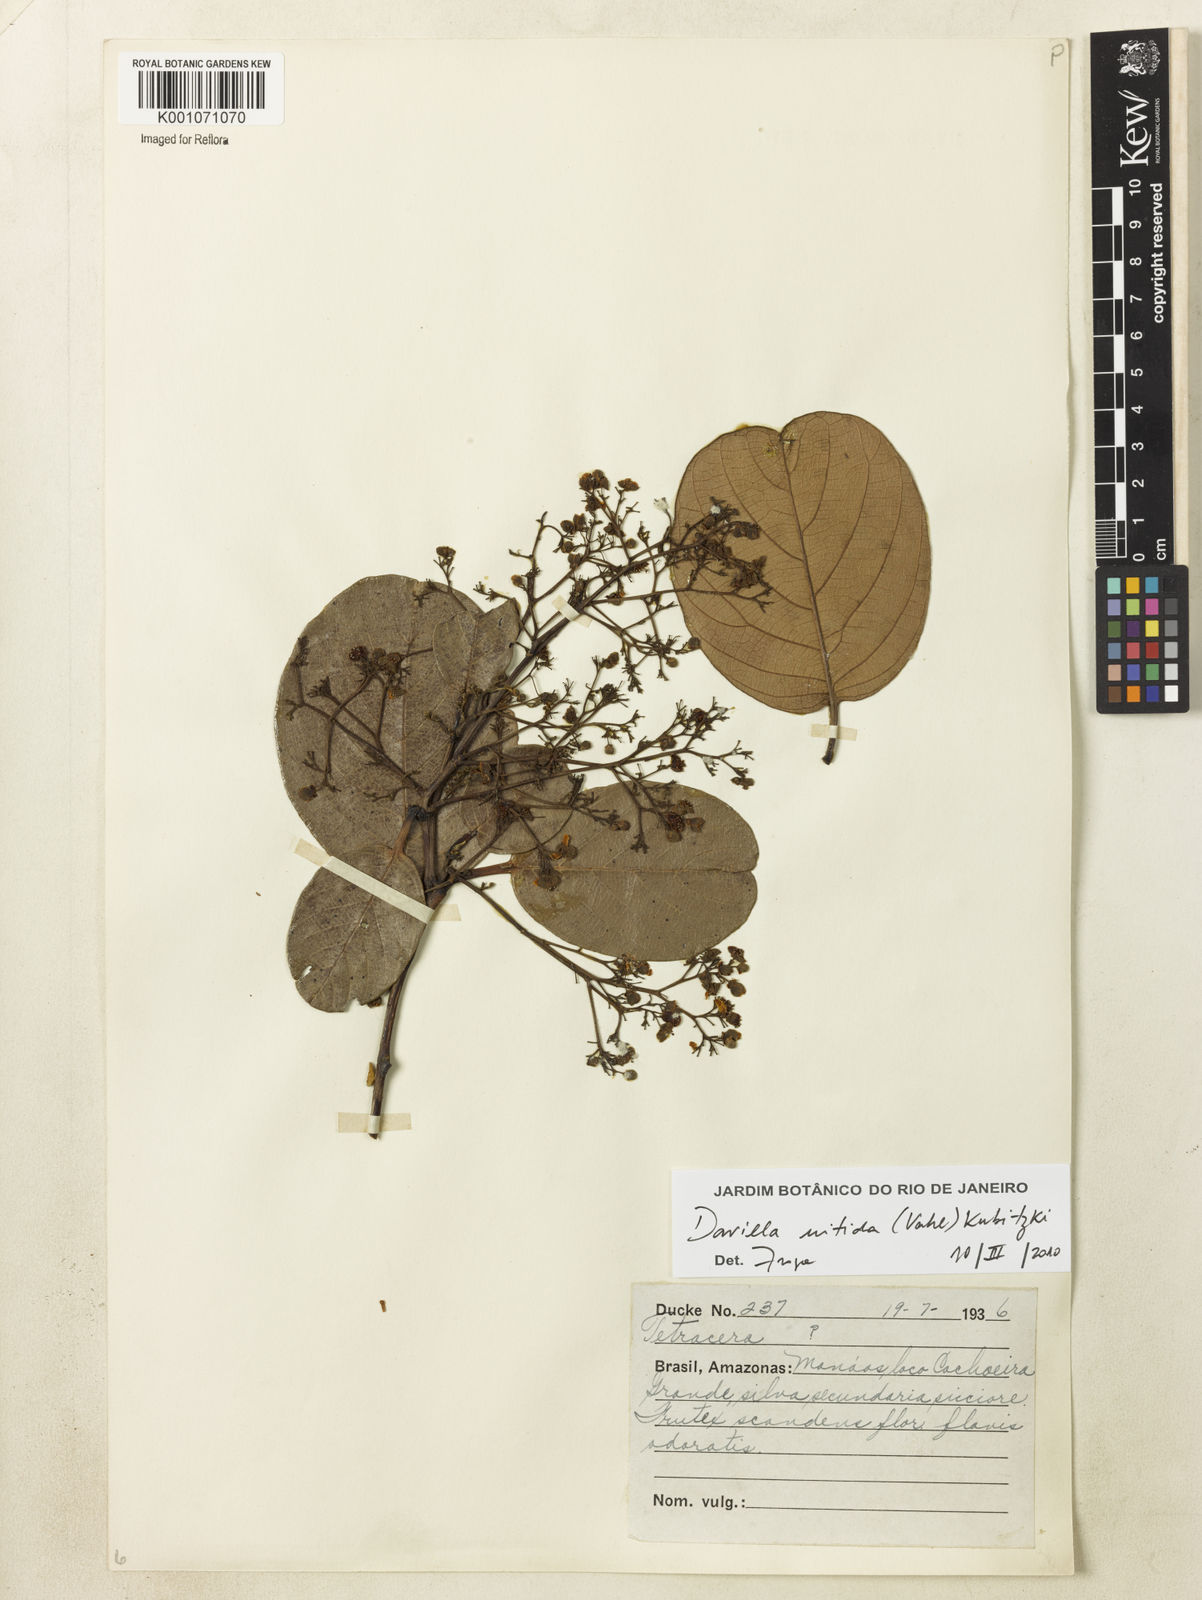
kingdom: Plantae
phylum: Tracheophyta
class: Magnoliopsida
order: Dilleniales
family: Dilleniaceae
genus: Davilla
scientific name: Davilla kunthii
